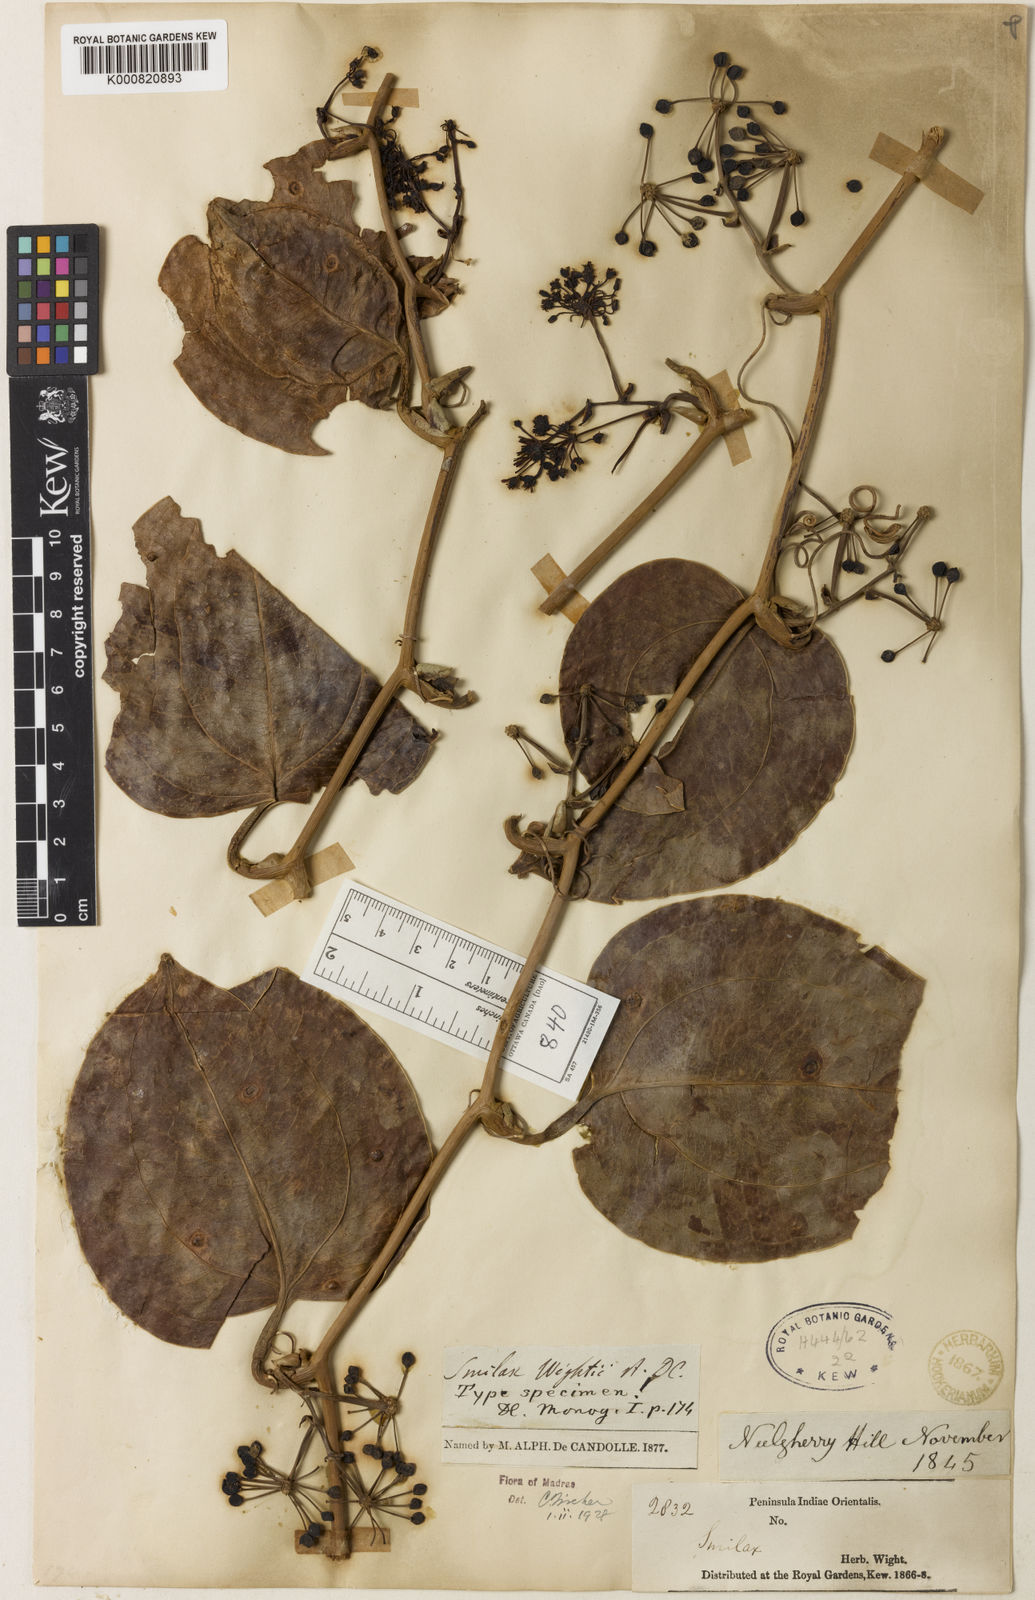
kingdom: Plantae
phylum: Tracheophyta
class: Liliopsida
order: Liliales
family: Smilacaceae
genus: Smilax
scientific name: Smilax wightii
